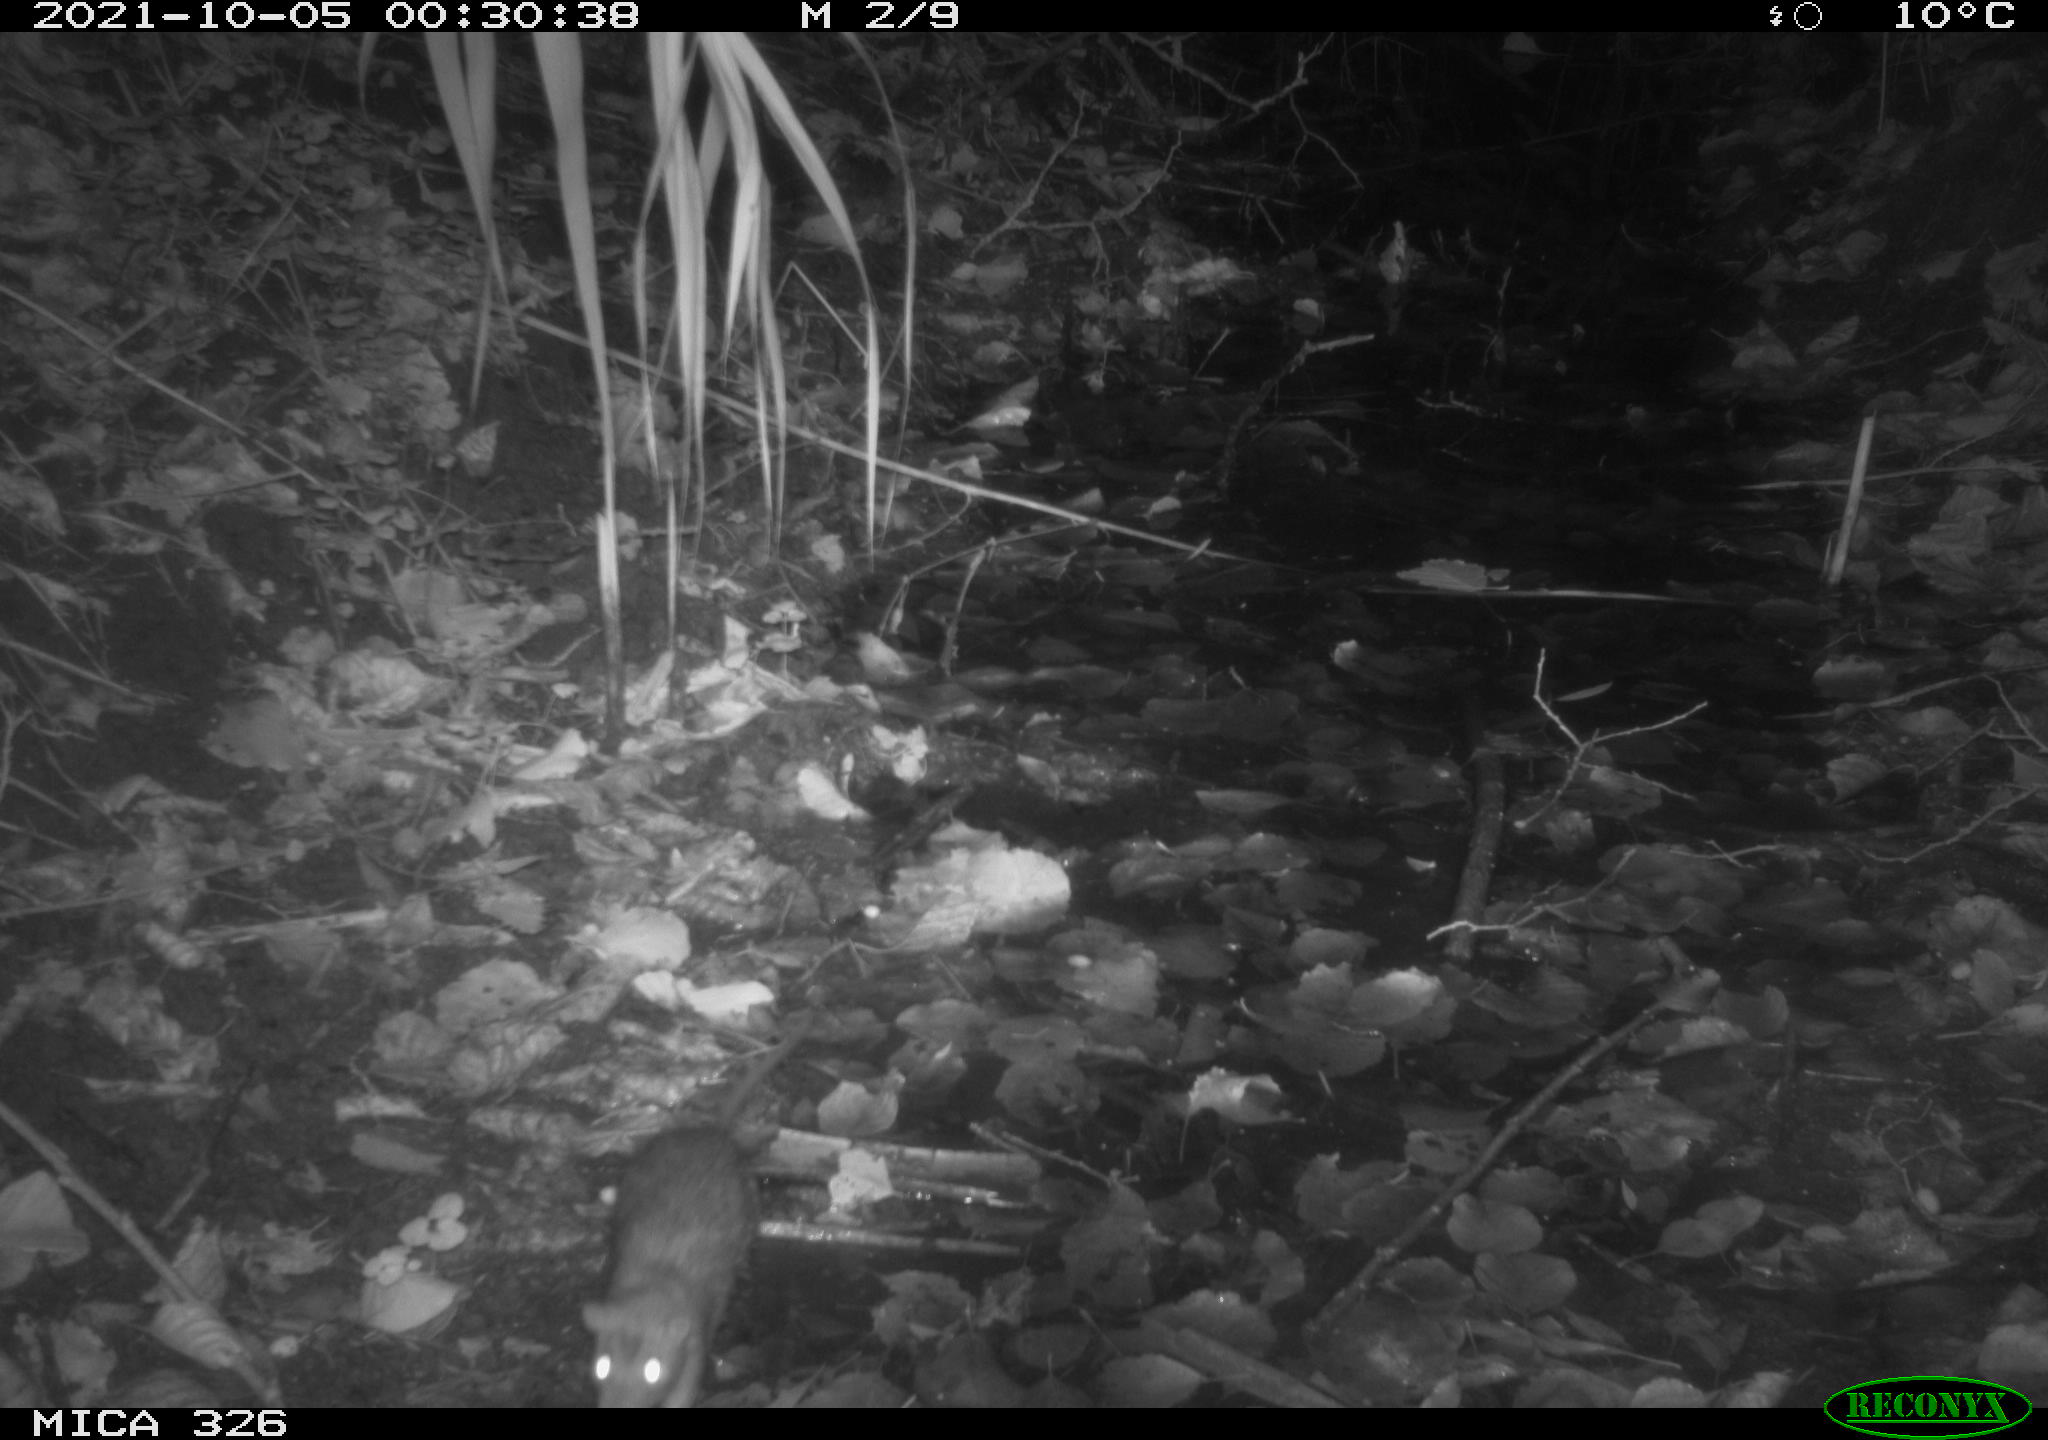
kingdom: Animalia
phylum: Chordata
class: Mammalia
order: Rodentia
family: Muridae
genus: Rattus
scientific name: Rattus norvegicus
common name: Brown rat
